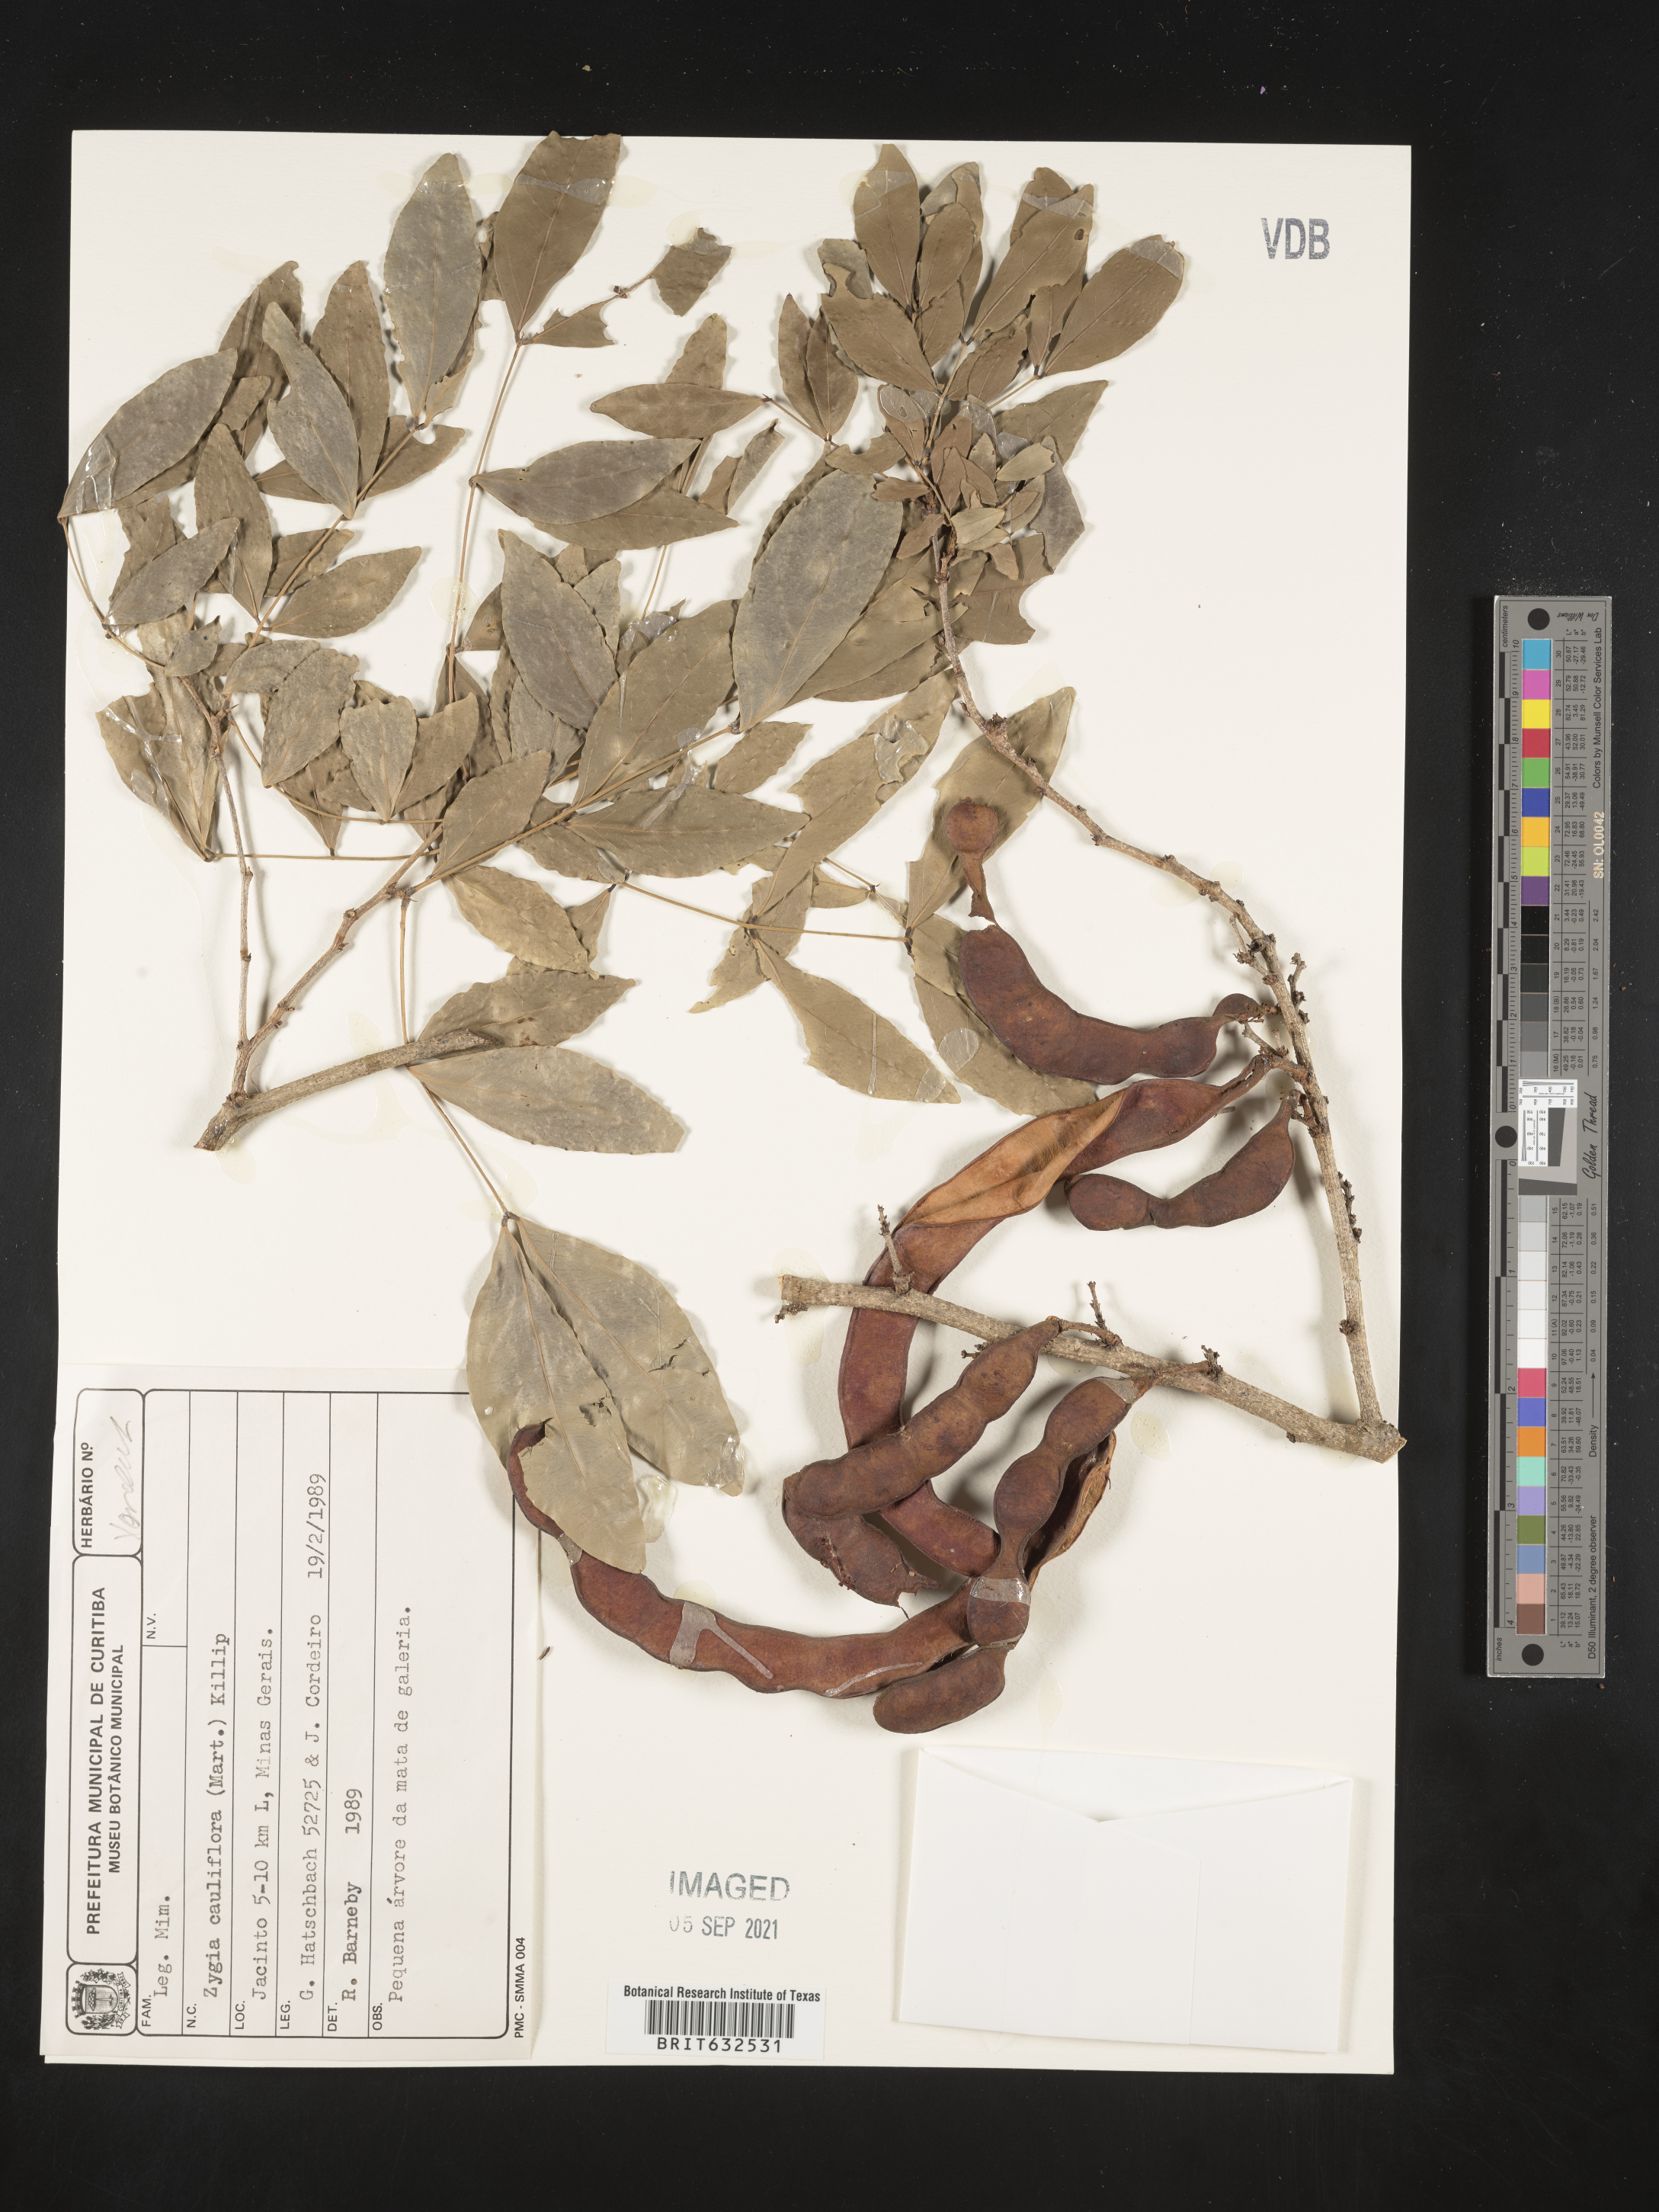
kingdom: Plantae
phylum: Tracheophyta
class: Magnoliopsida
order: Fabales
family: Fabaceae
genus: Zygia
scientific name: Zygia
